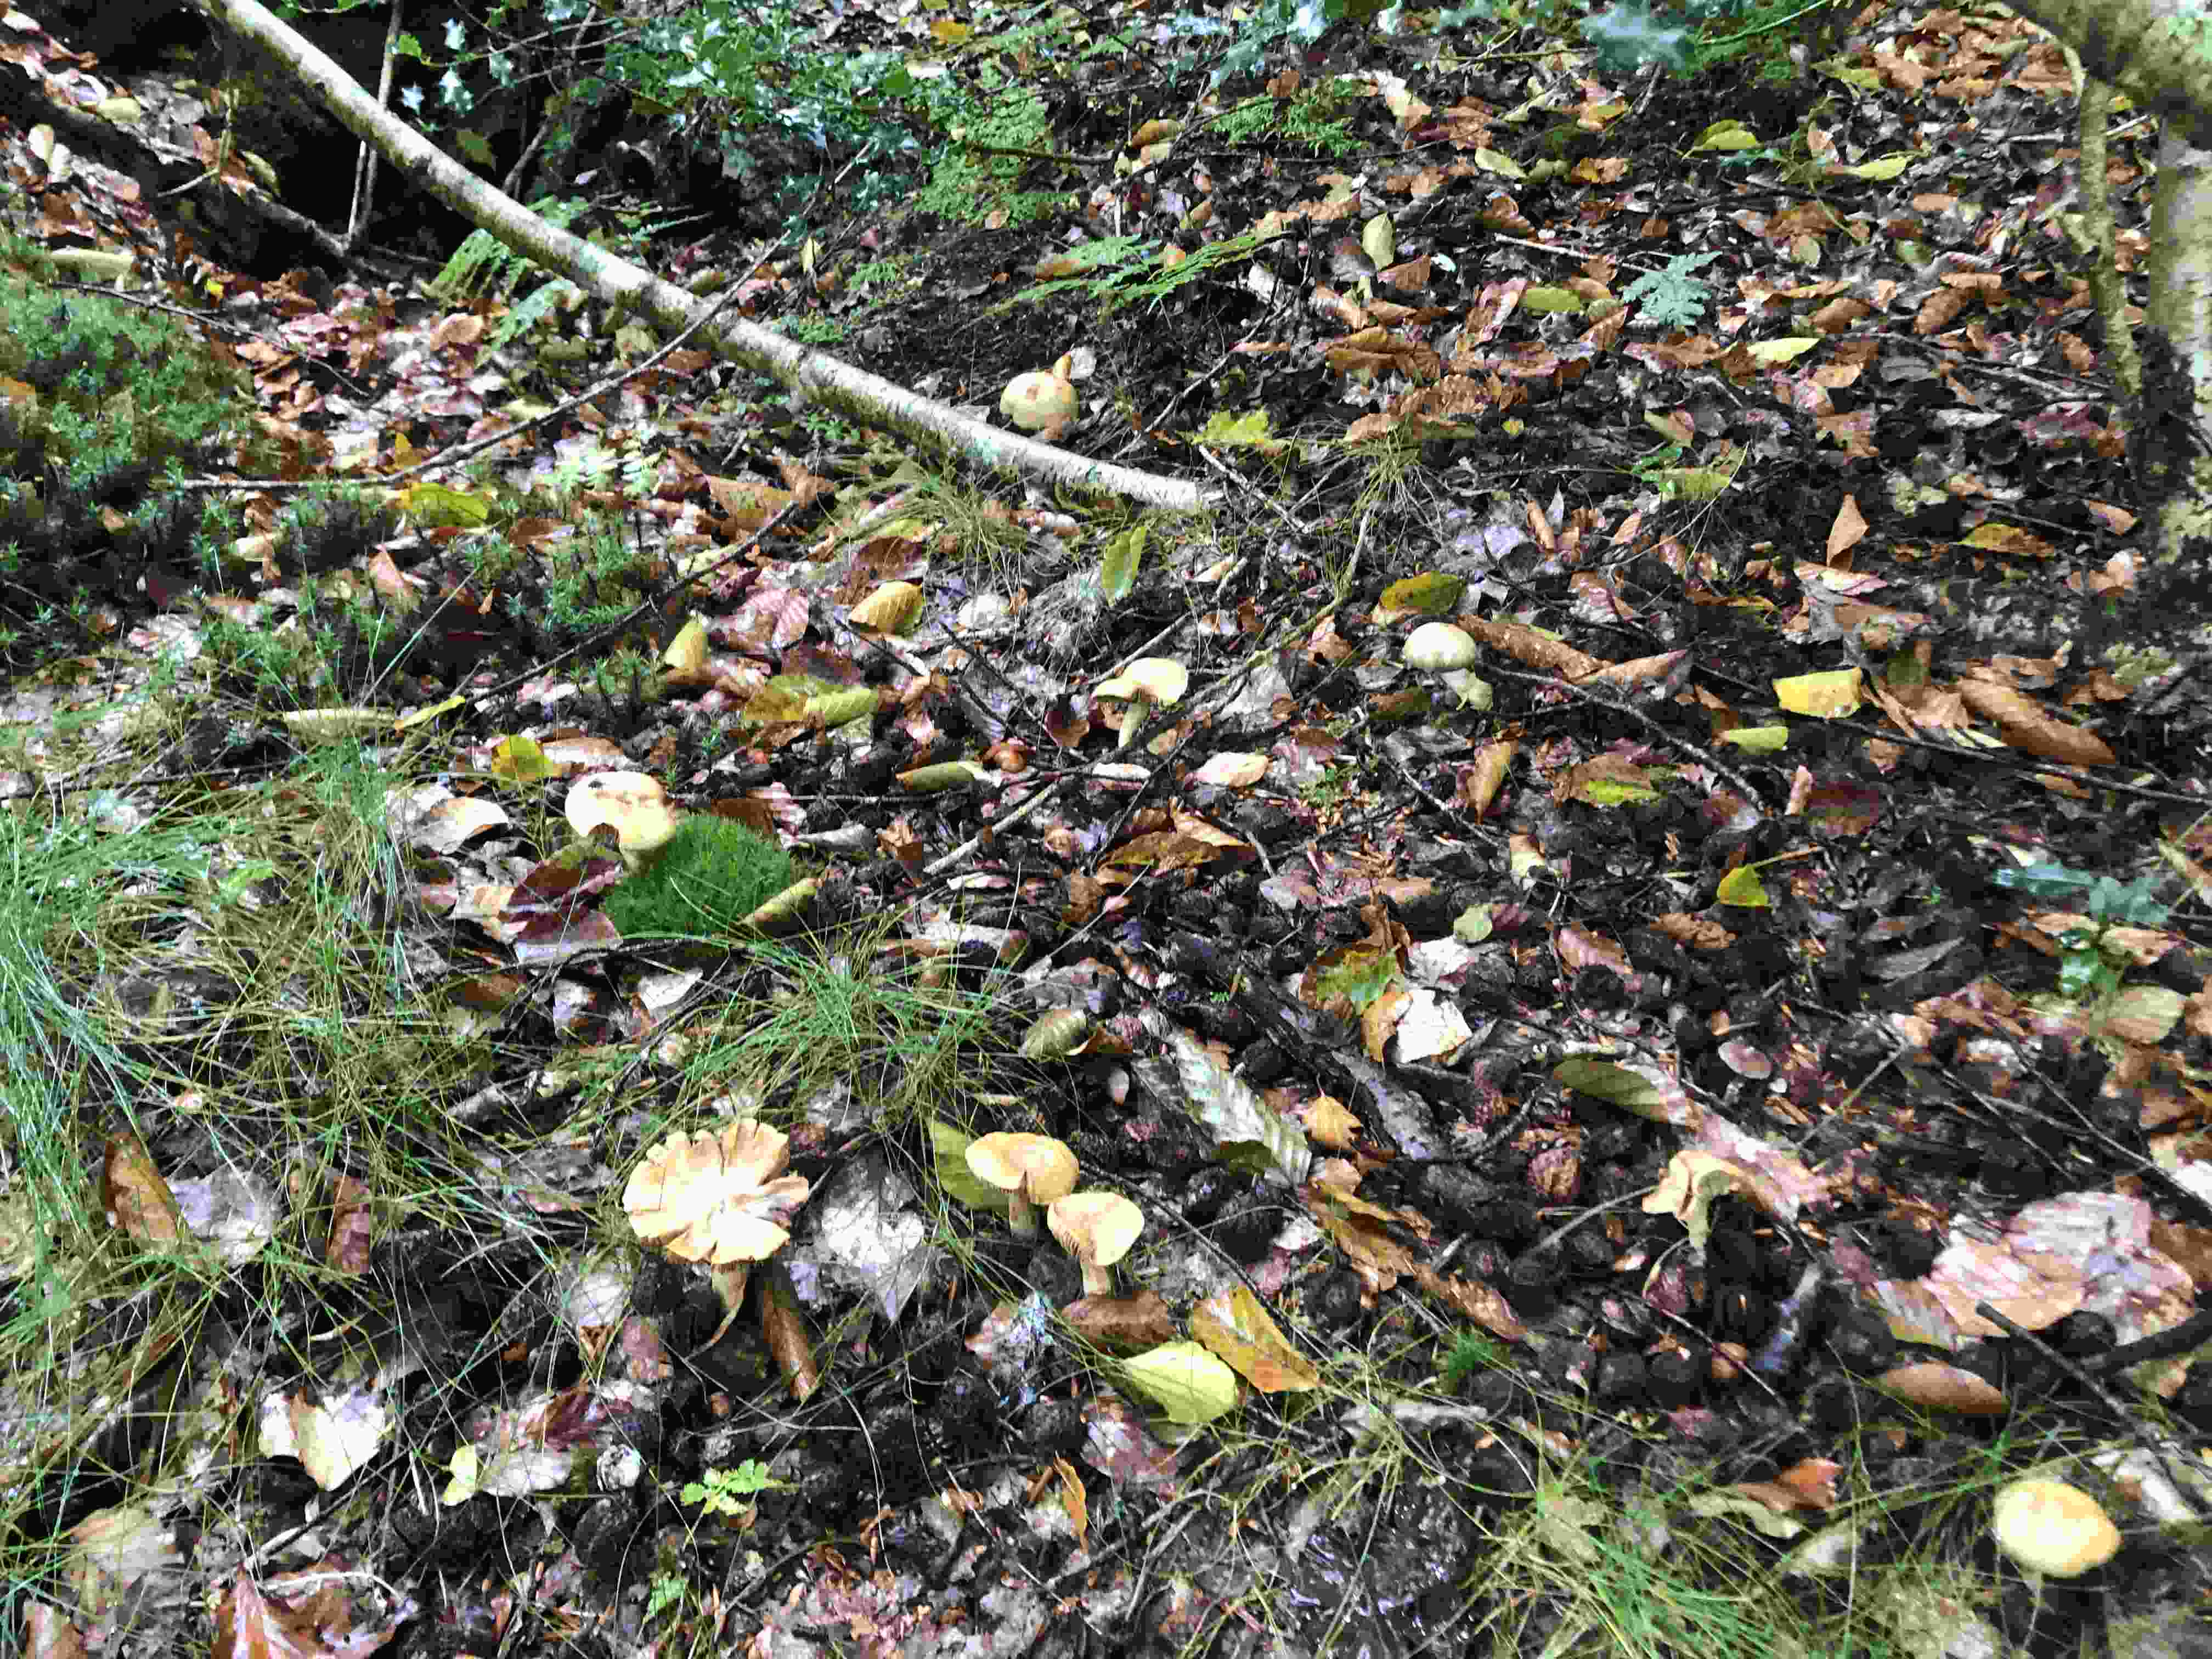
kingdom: Fungi
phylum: Basidiomycota
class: Agaricomycetes
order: Agaricales
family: Cortinariaceae
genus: Cortinarius
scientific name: Cortinarius subtortus
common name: olivengul slørhat
